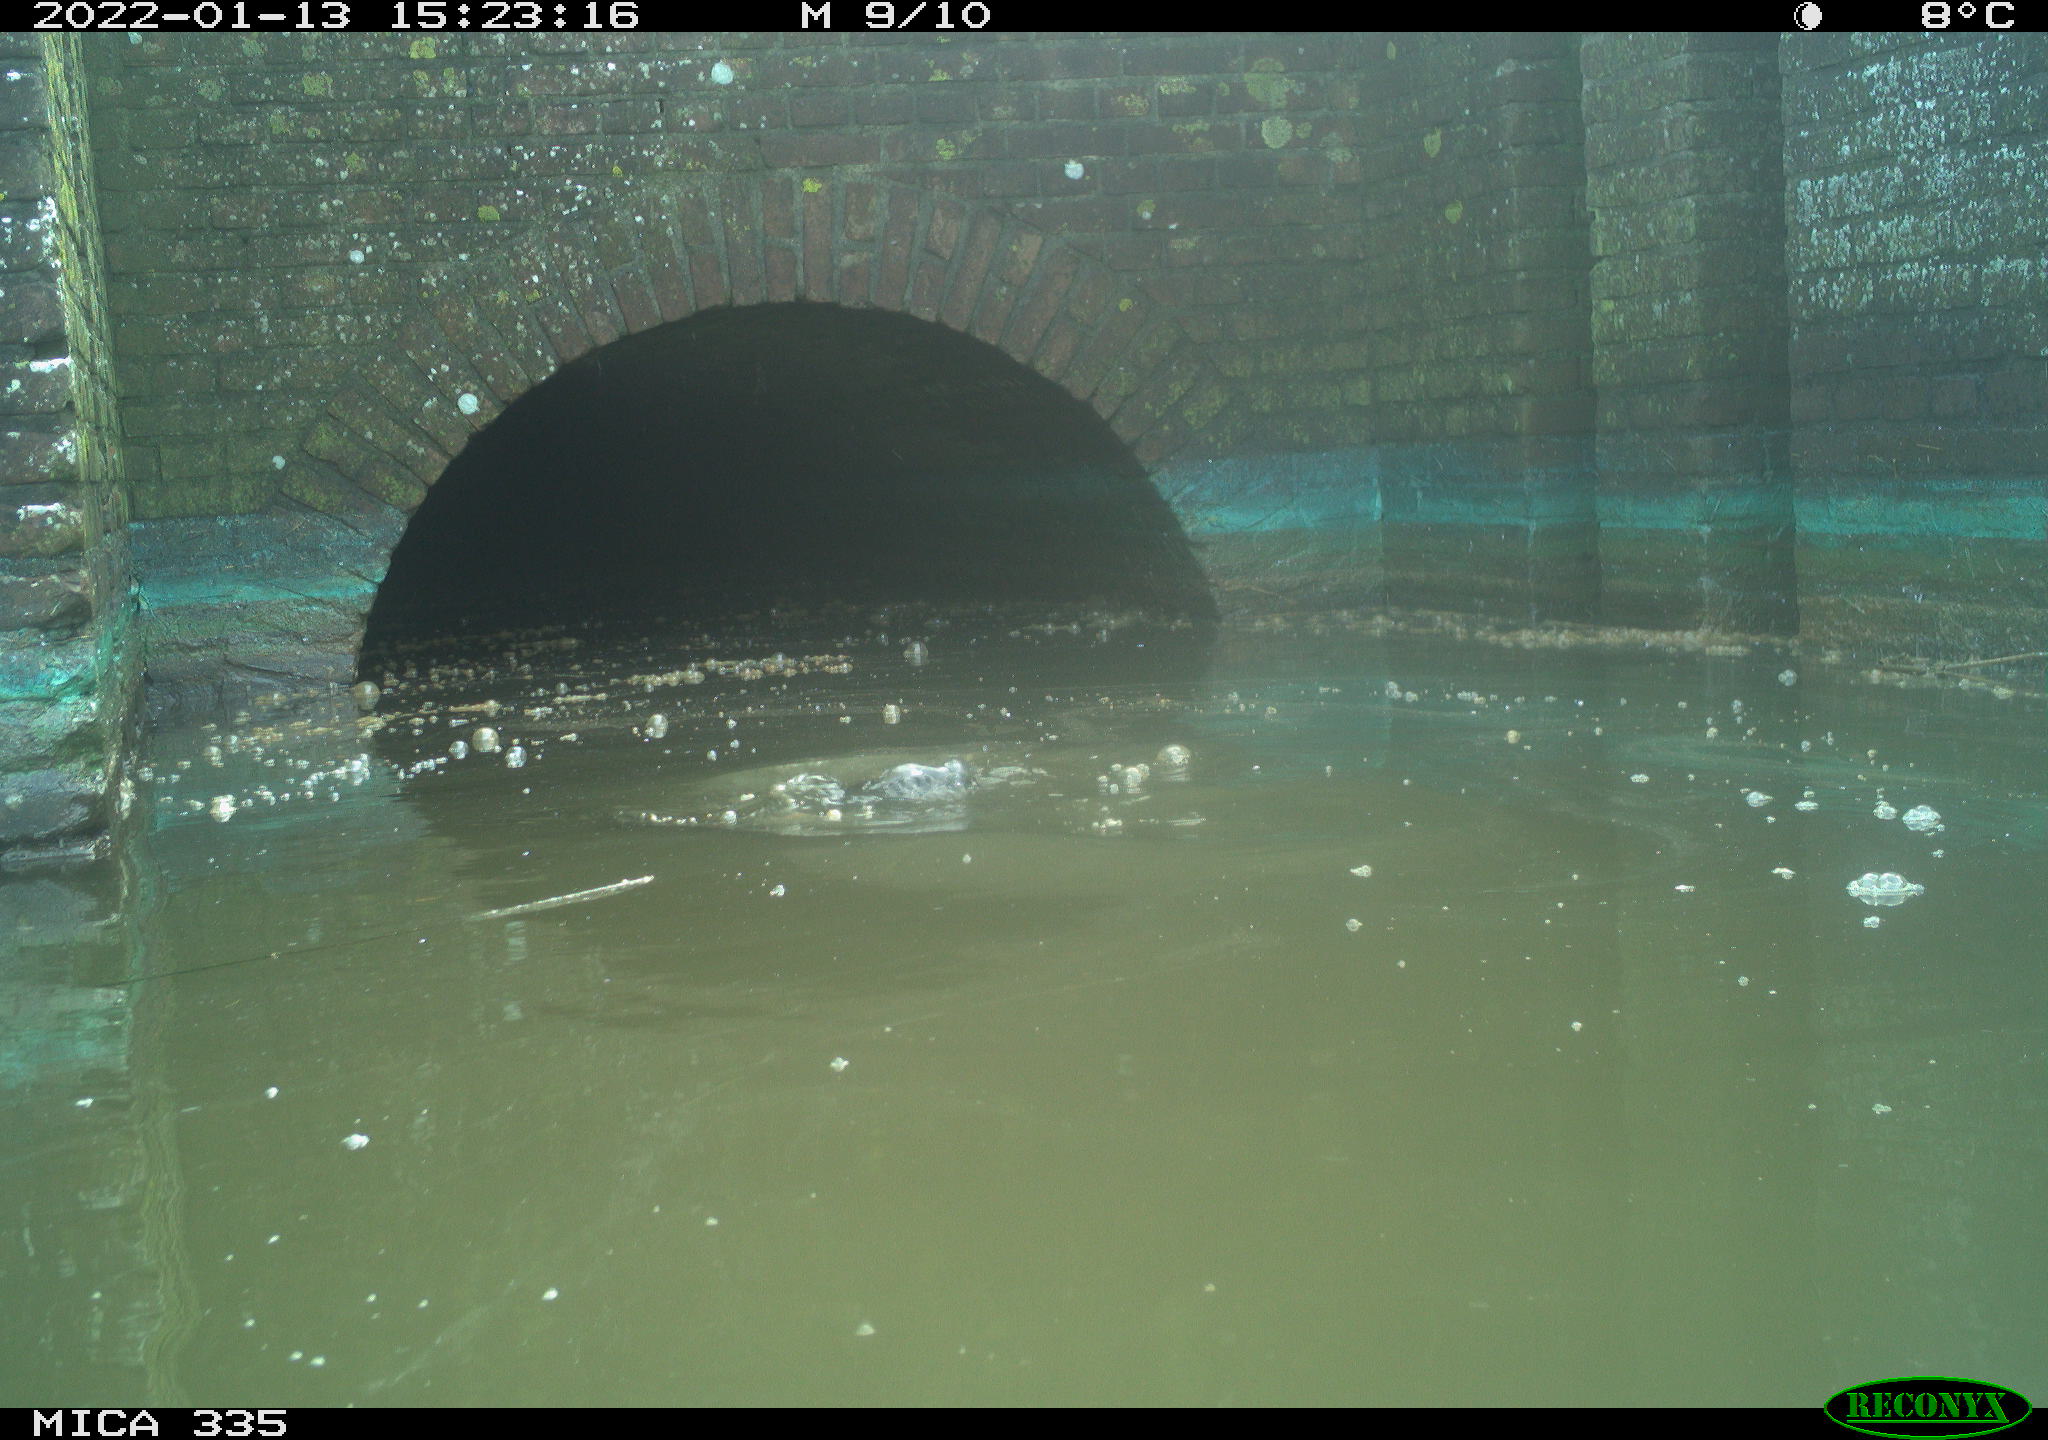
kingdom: Animalia
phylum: Chordata
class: Aves
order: Suliformes
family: Phalacrocoracidae
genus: Phalacrocorax
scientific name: Phalacrocorax carbo
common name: Great cormorant
